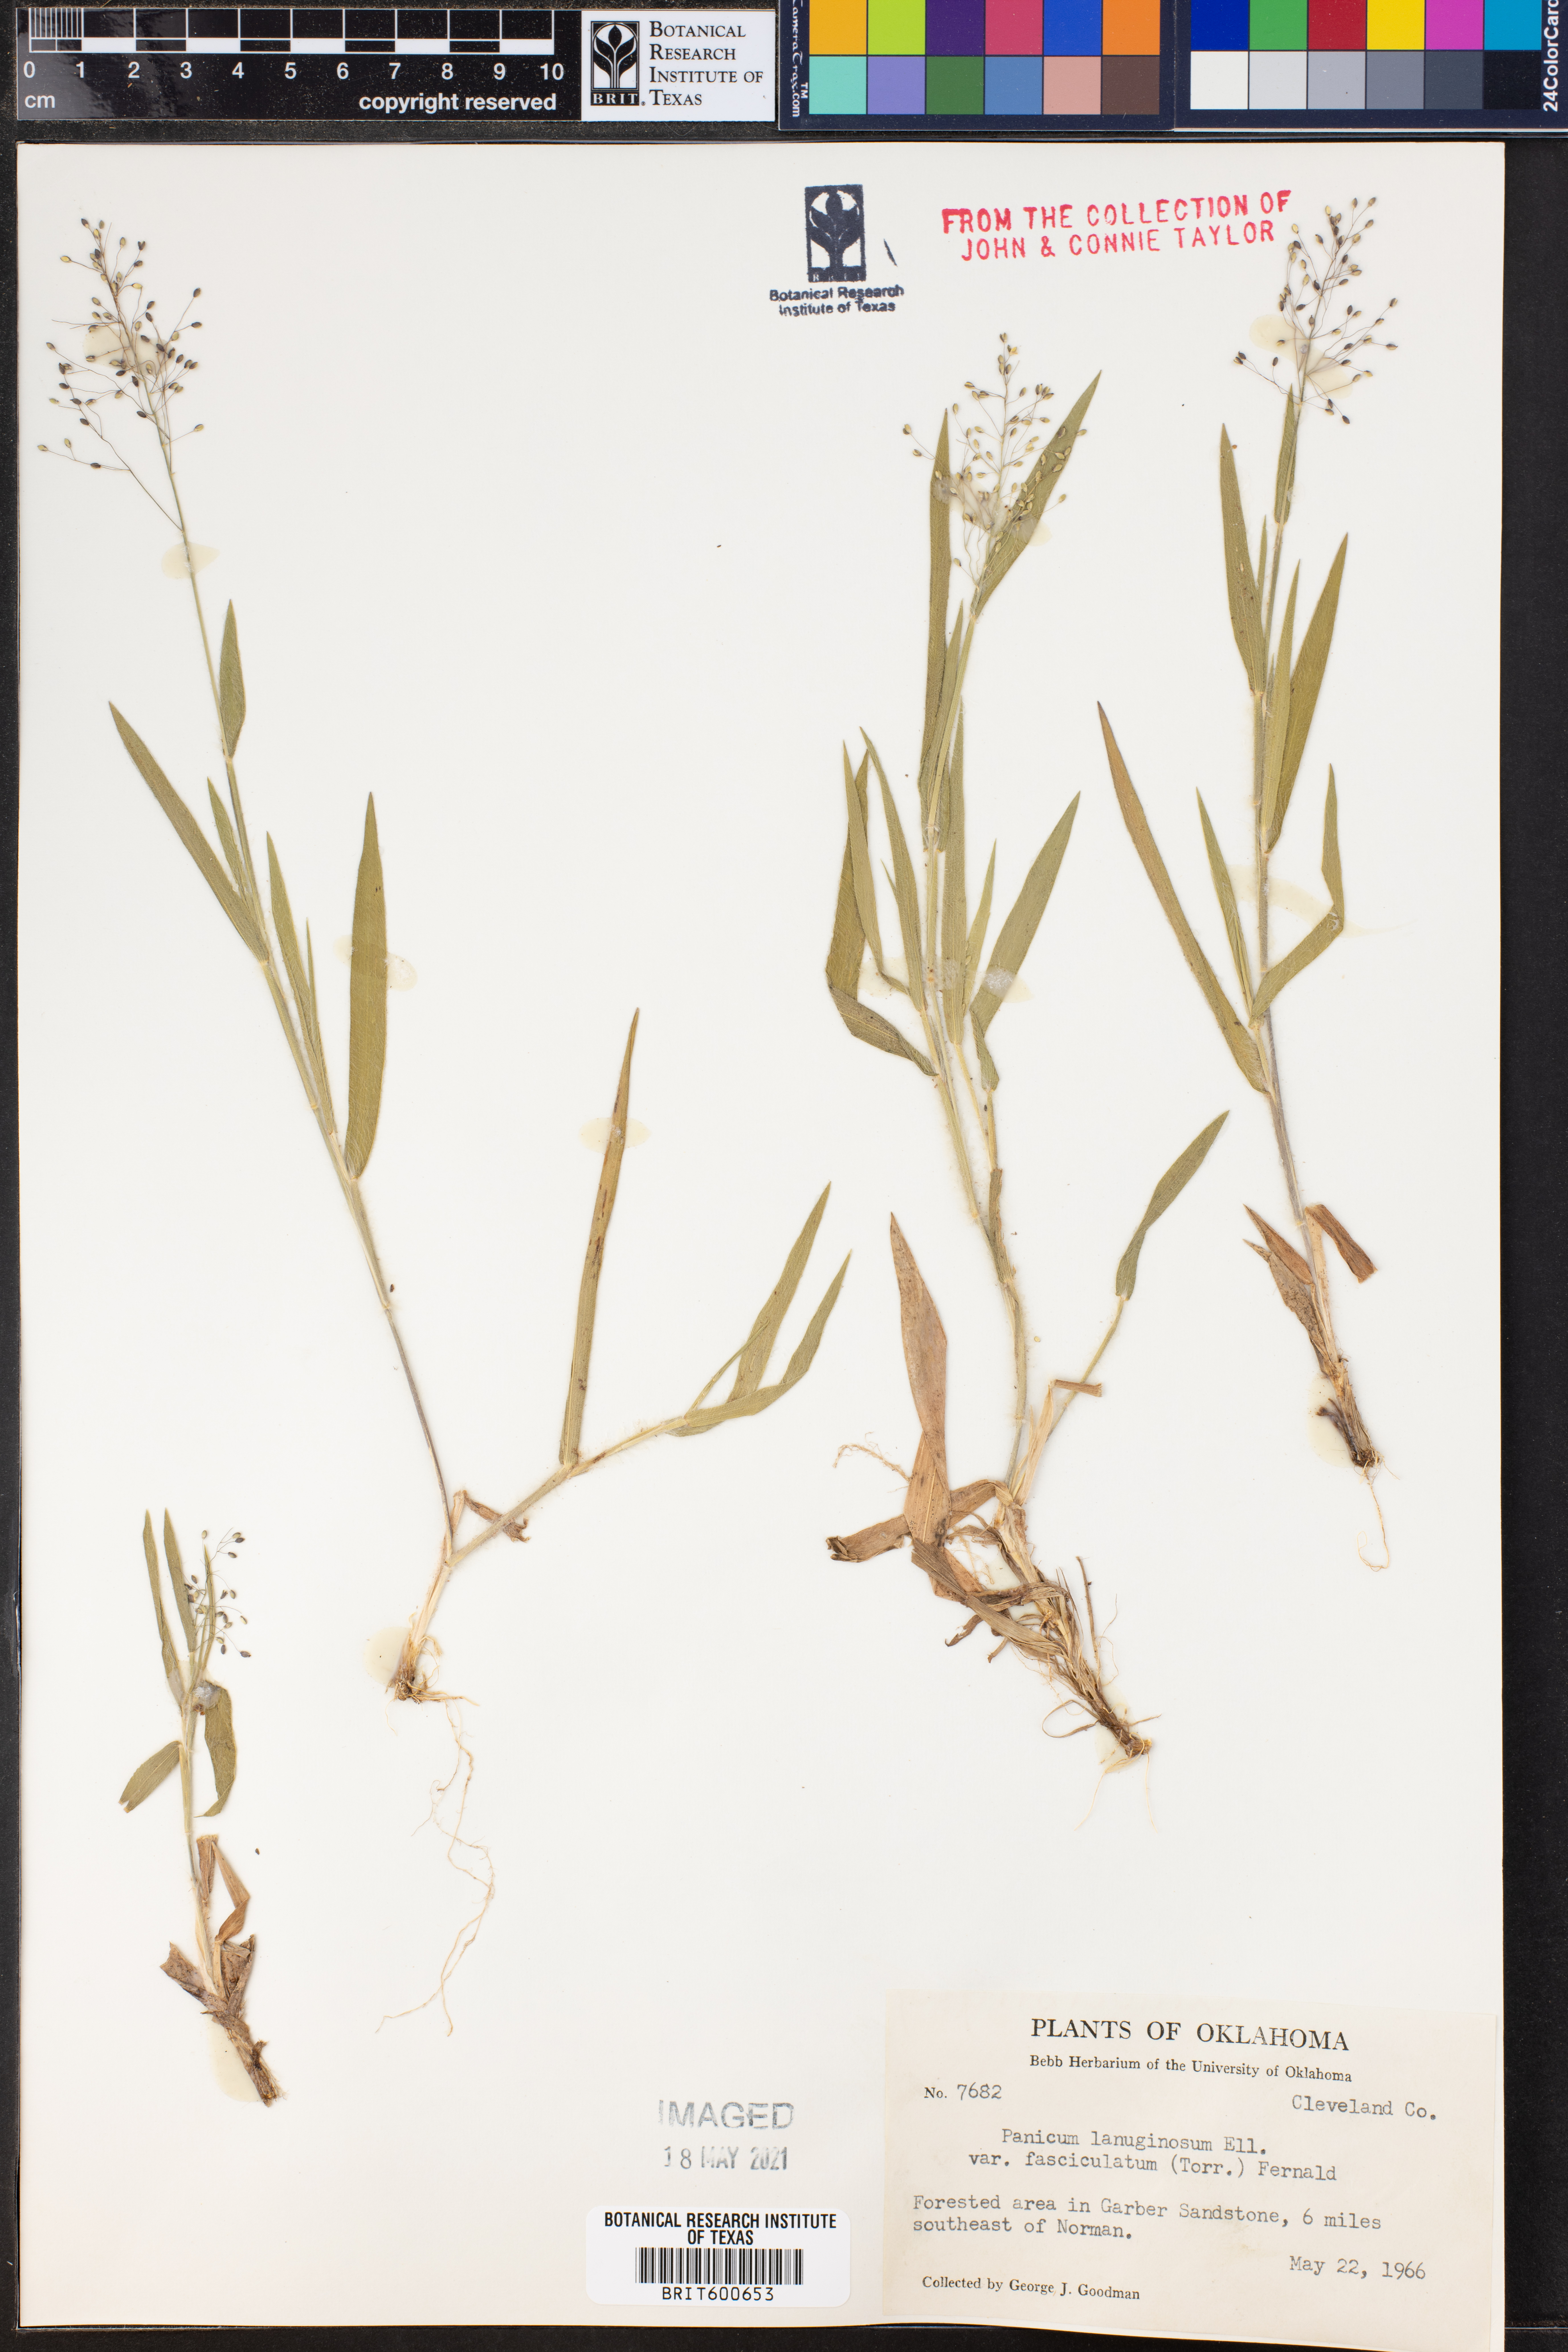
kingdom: Plantae
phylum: Tracheophyta
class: Liliopsida
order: Poales
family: Poaceae
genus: Dichanthelium
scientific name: Dichanthelium lanuginosum
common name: Woolly panicgrass
